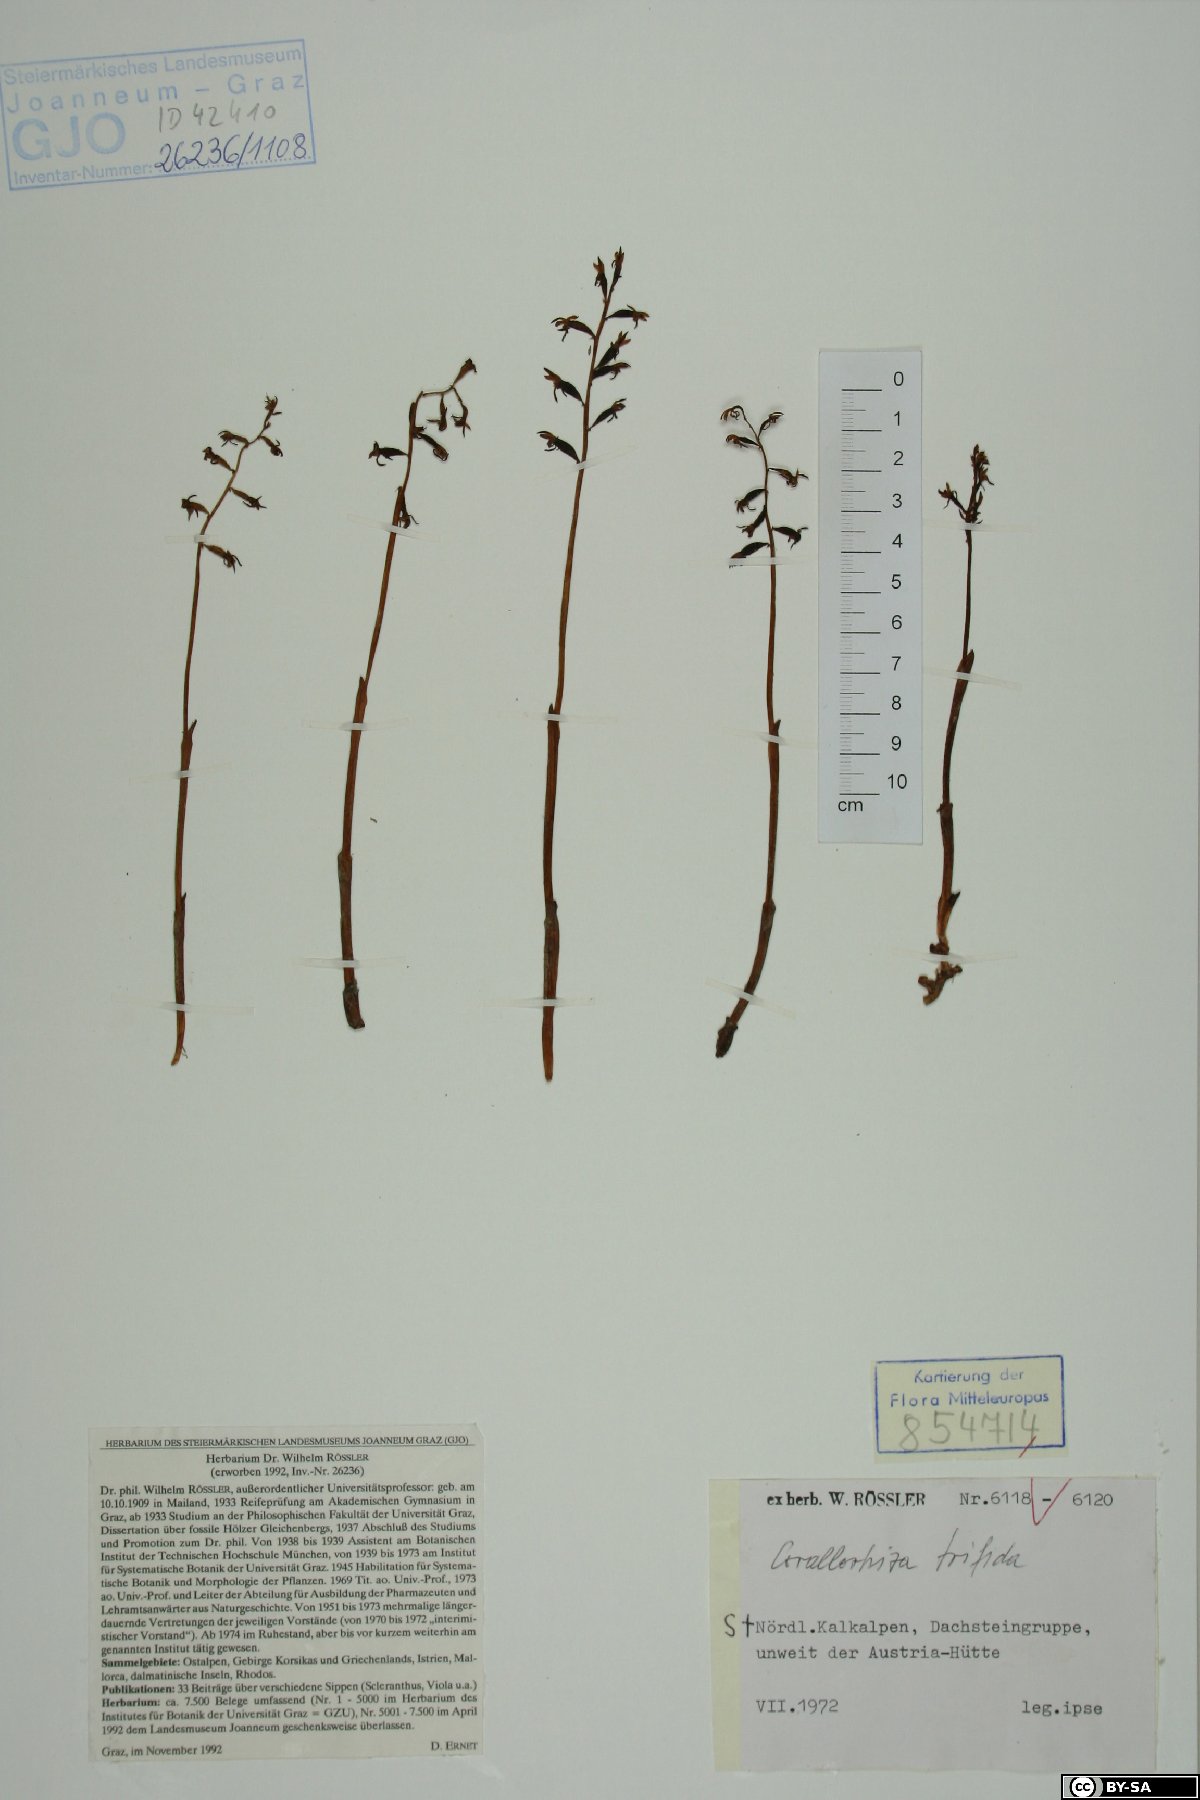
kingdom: Plantae
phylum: Tracheophyta
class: Liliopsida
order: Asparagales
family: Orchidaceae
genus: Corallorhiza
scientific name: Corallorhiza trifida
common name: Yellow coralroot
